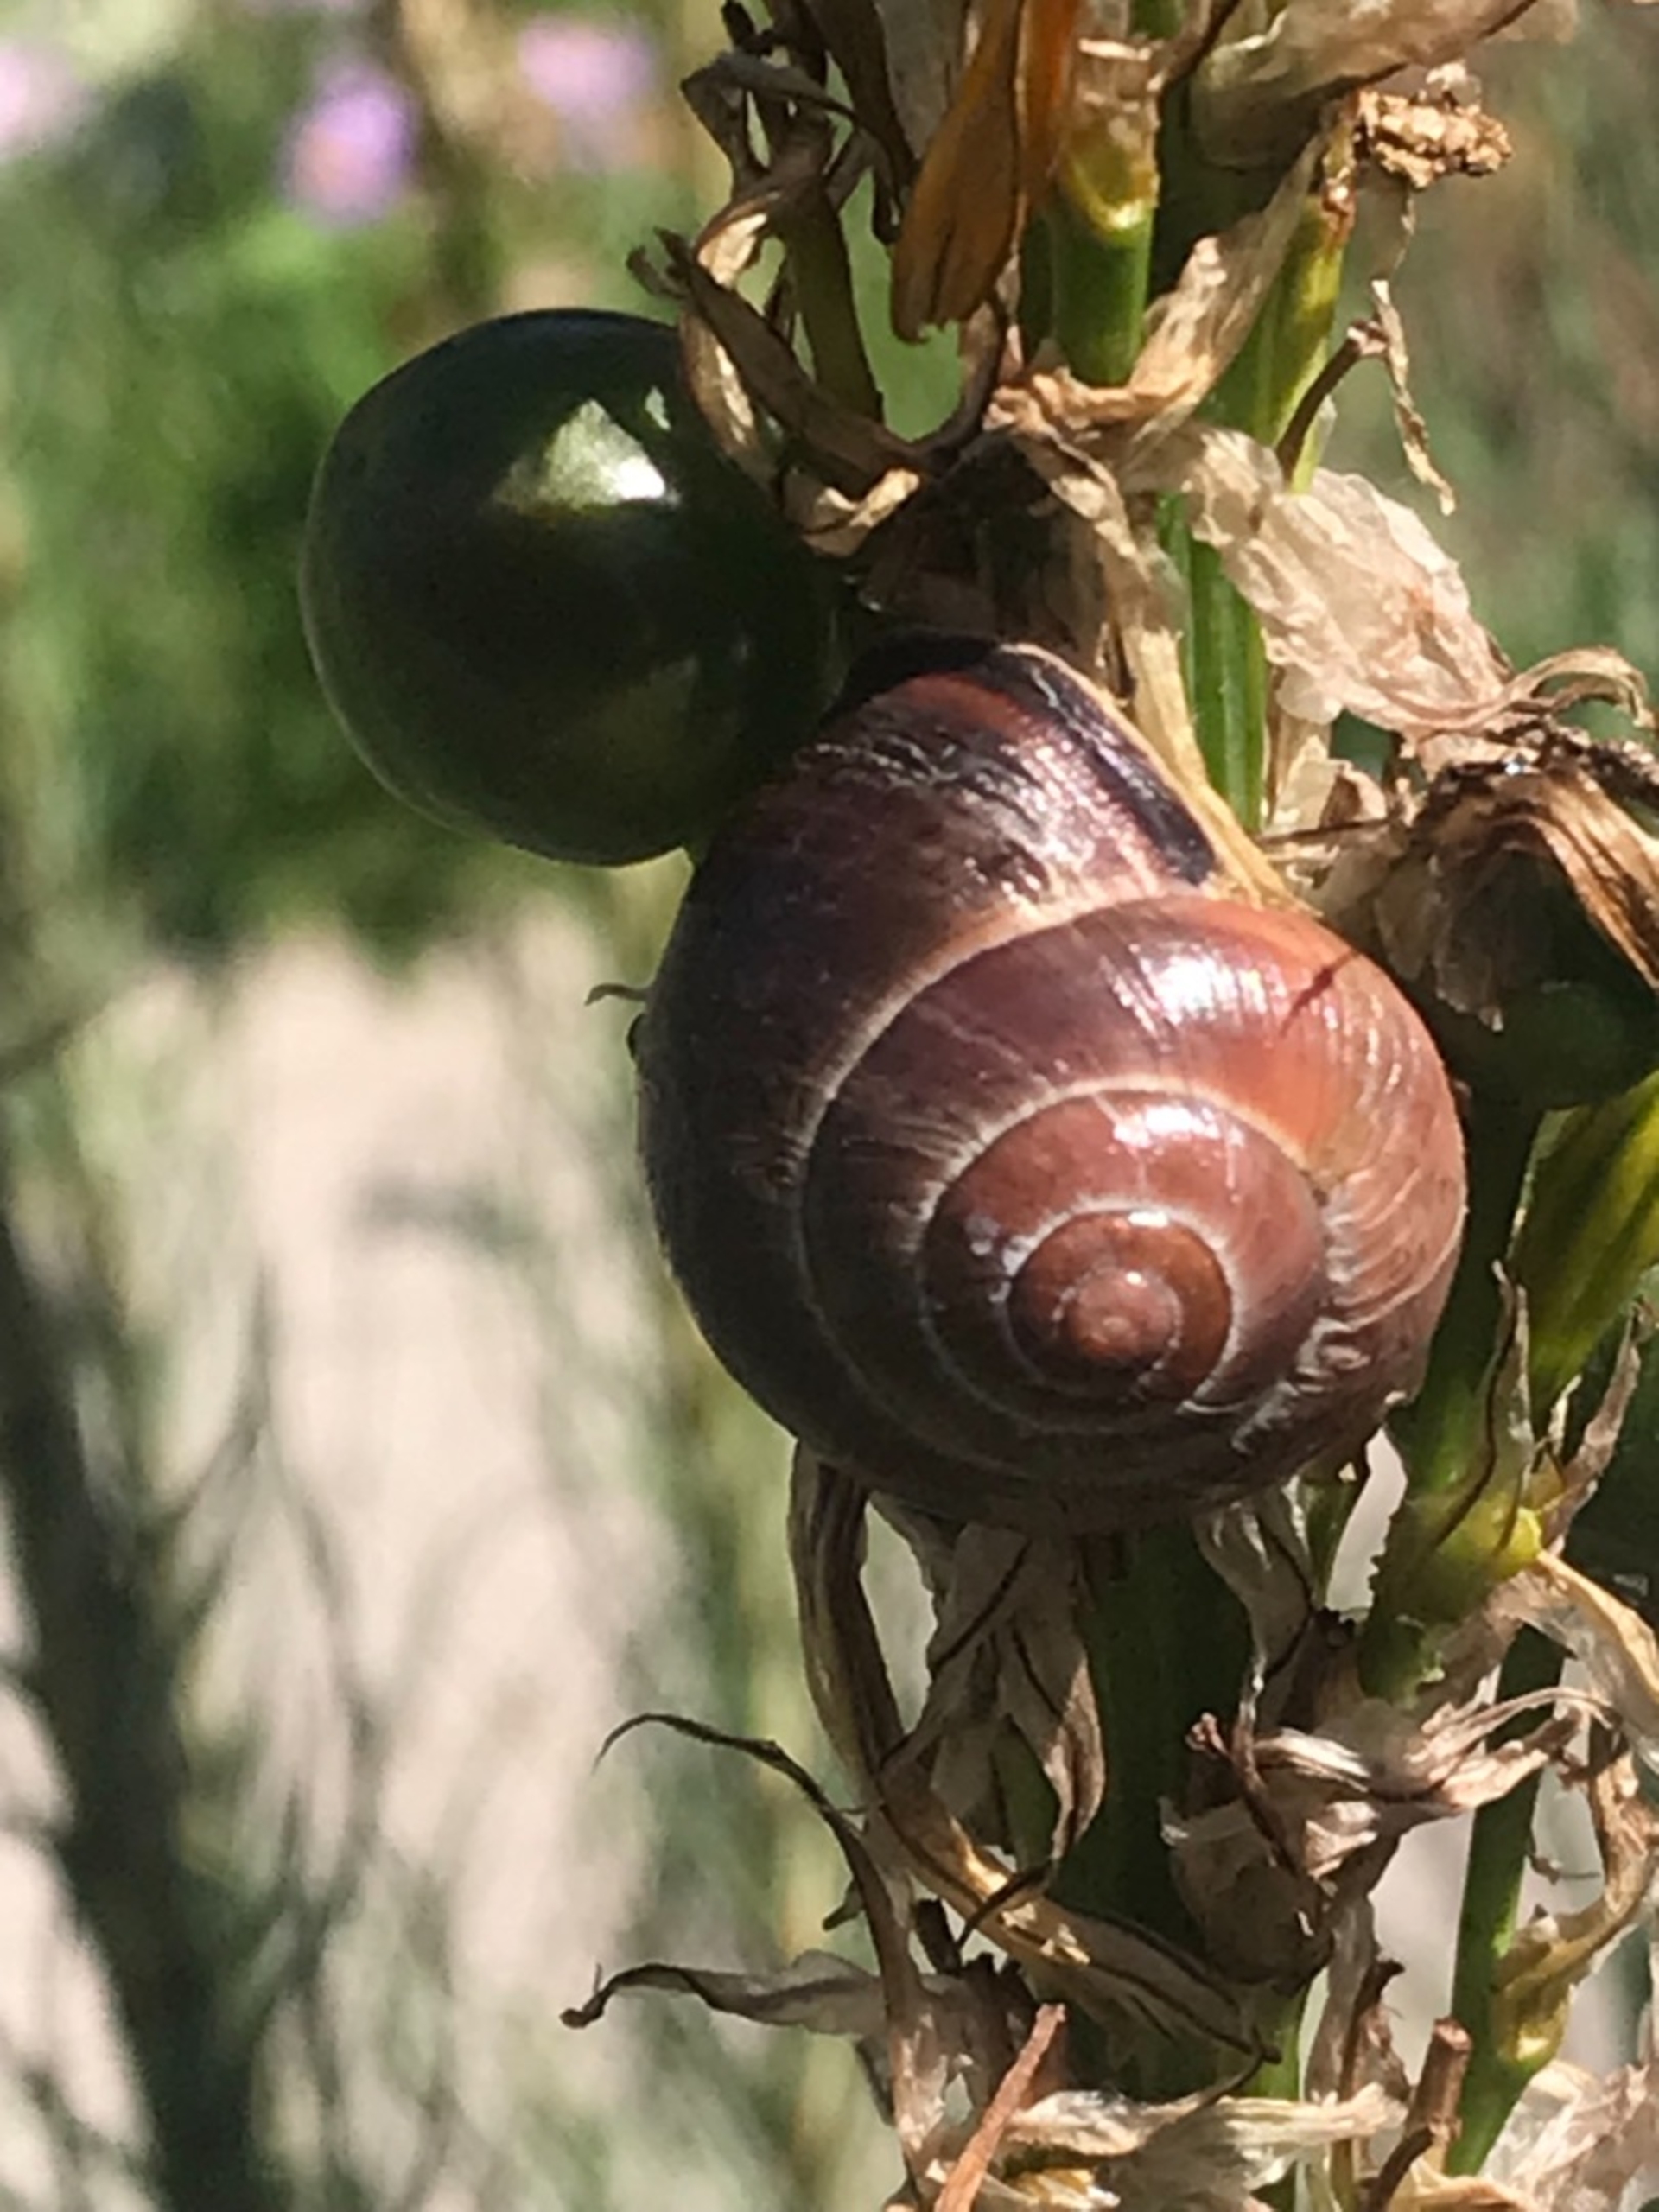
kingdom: Animalia
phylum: Mollusca
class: Gastropoda
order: Stylommatophora
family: Helicidae
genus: Cepaea
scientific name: Cepaea nemoralis
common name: Lundsnegl
